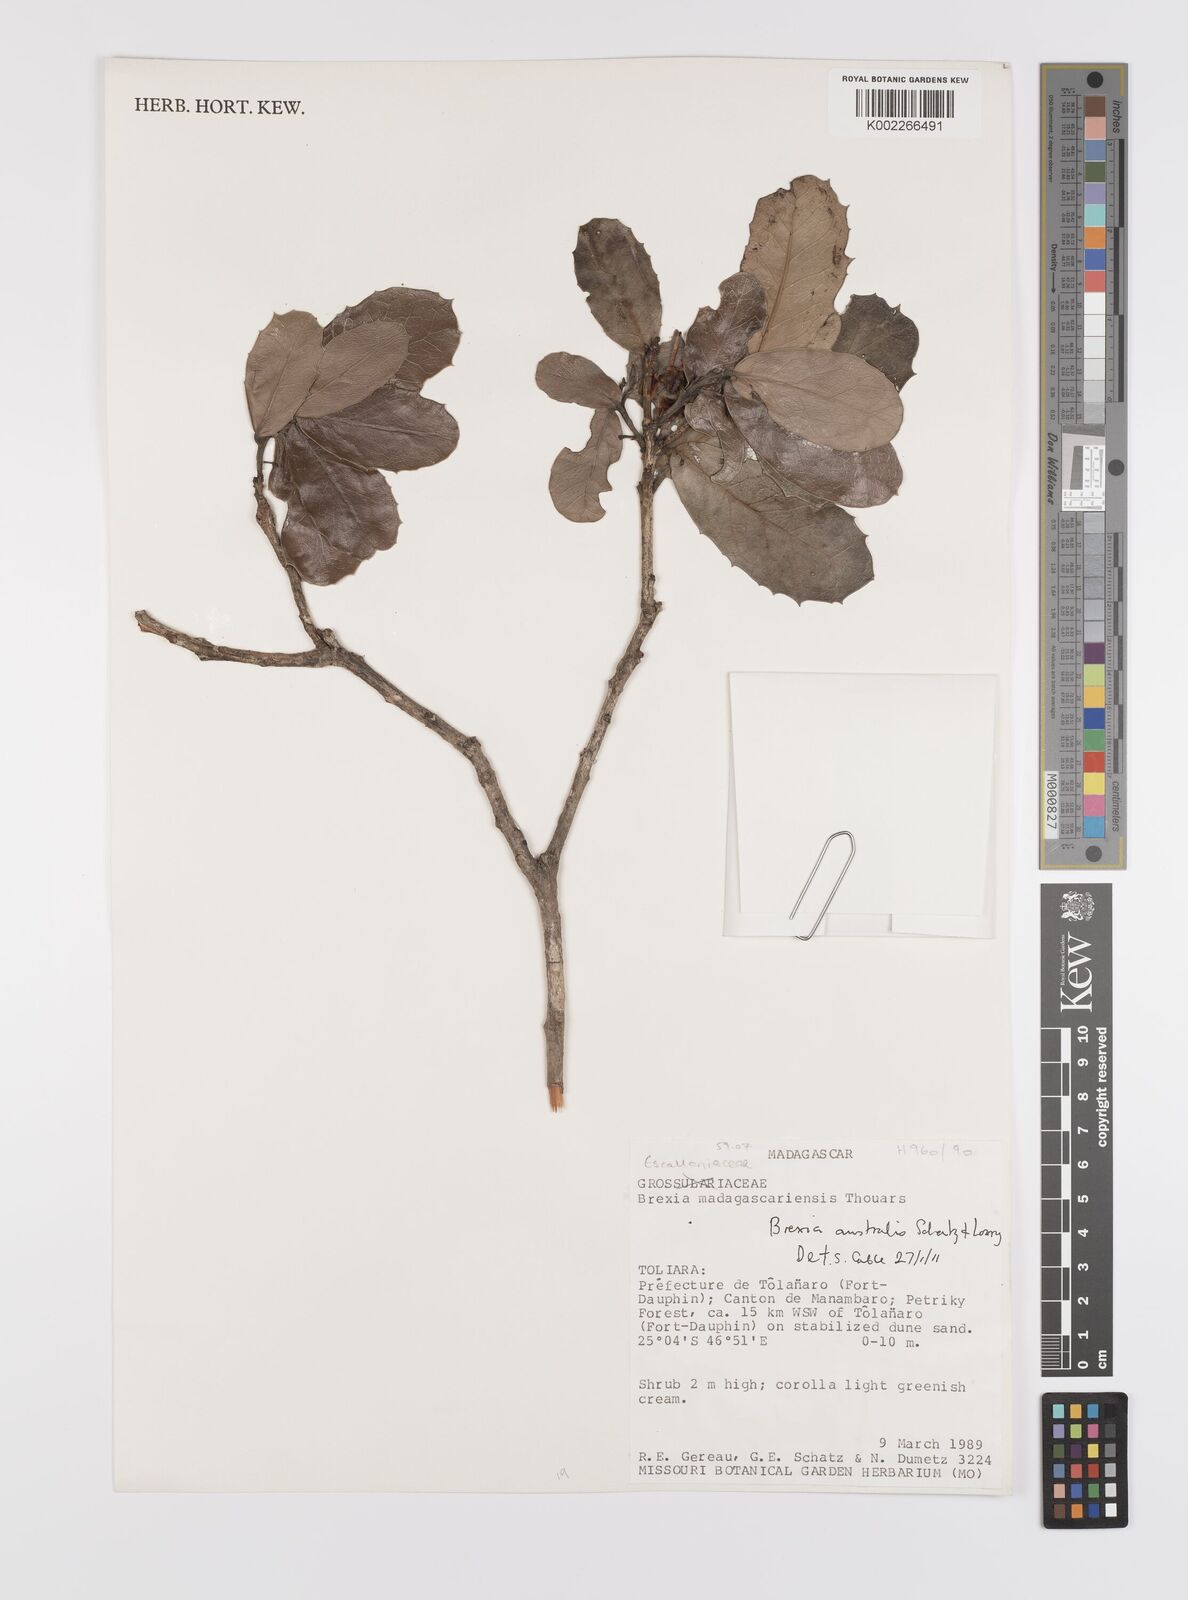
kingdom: Plantae
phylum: Tracheophyta
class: Magnoliopsida
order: Celastrales
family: Celastraceae
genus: Brexia
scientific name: Brexia australis
